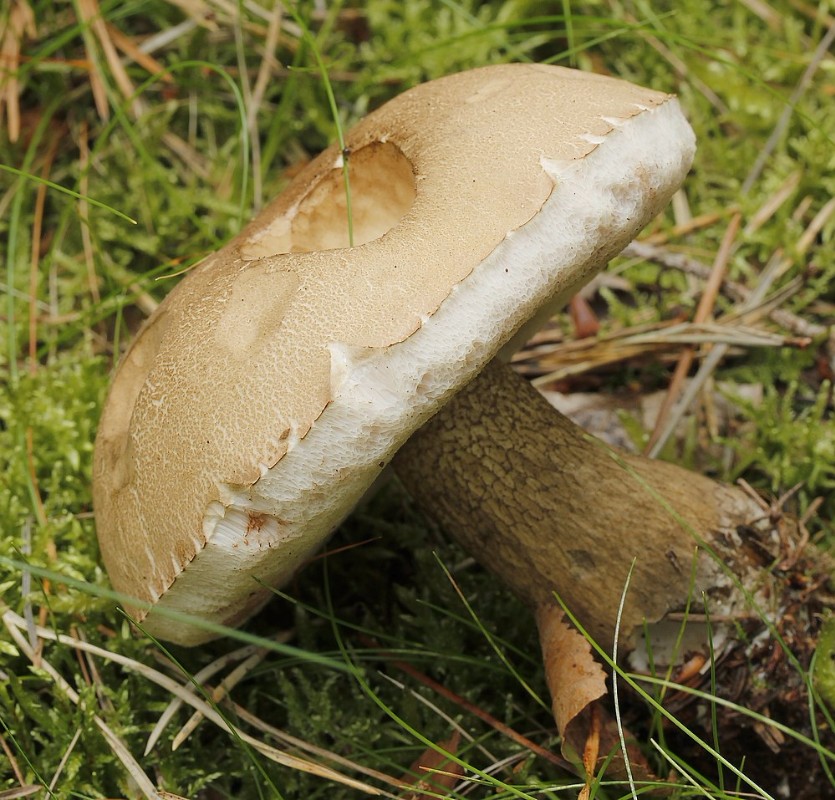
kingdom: Fungi
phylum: Basidiomycota
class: Agaricomycetes
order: Boletales
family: Boletaceae
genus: Tylopilus
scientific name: Tylopilus felleus
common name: galderørhat
